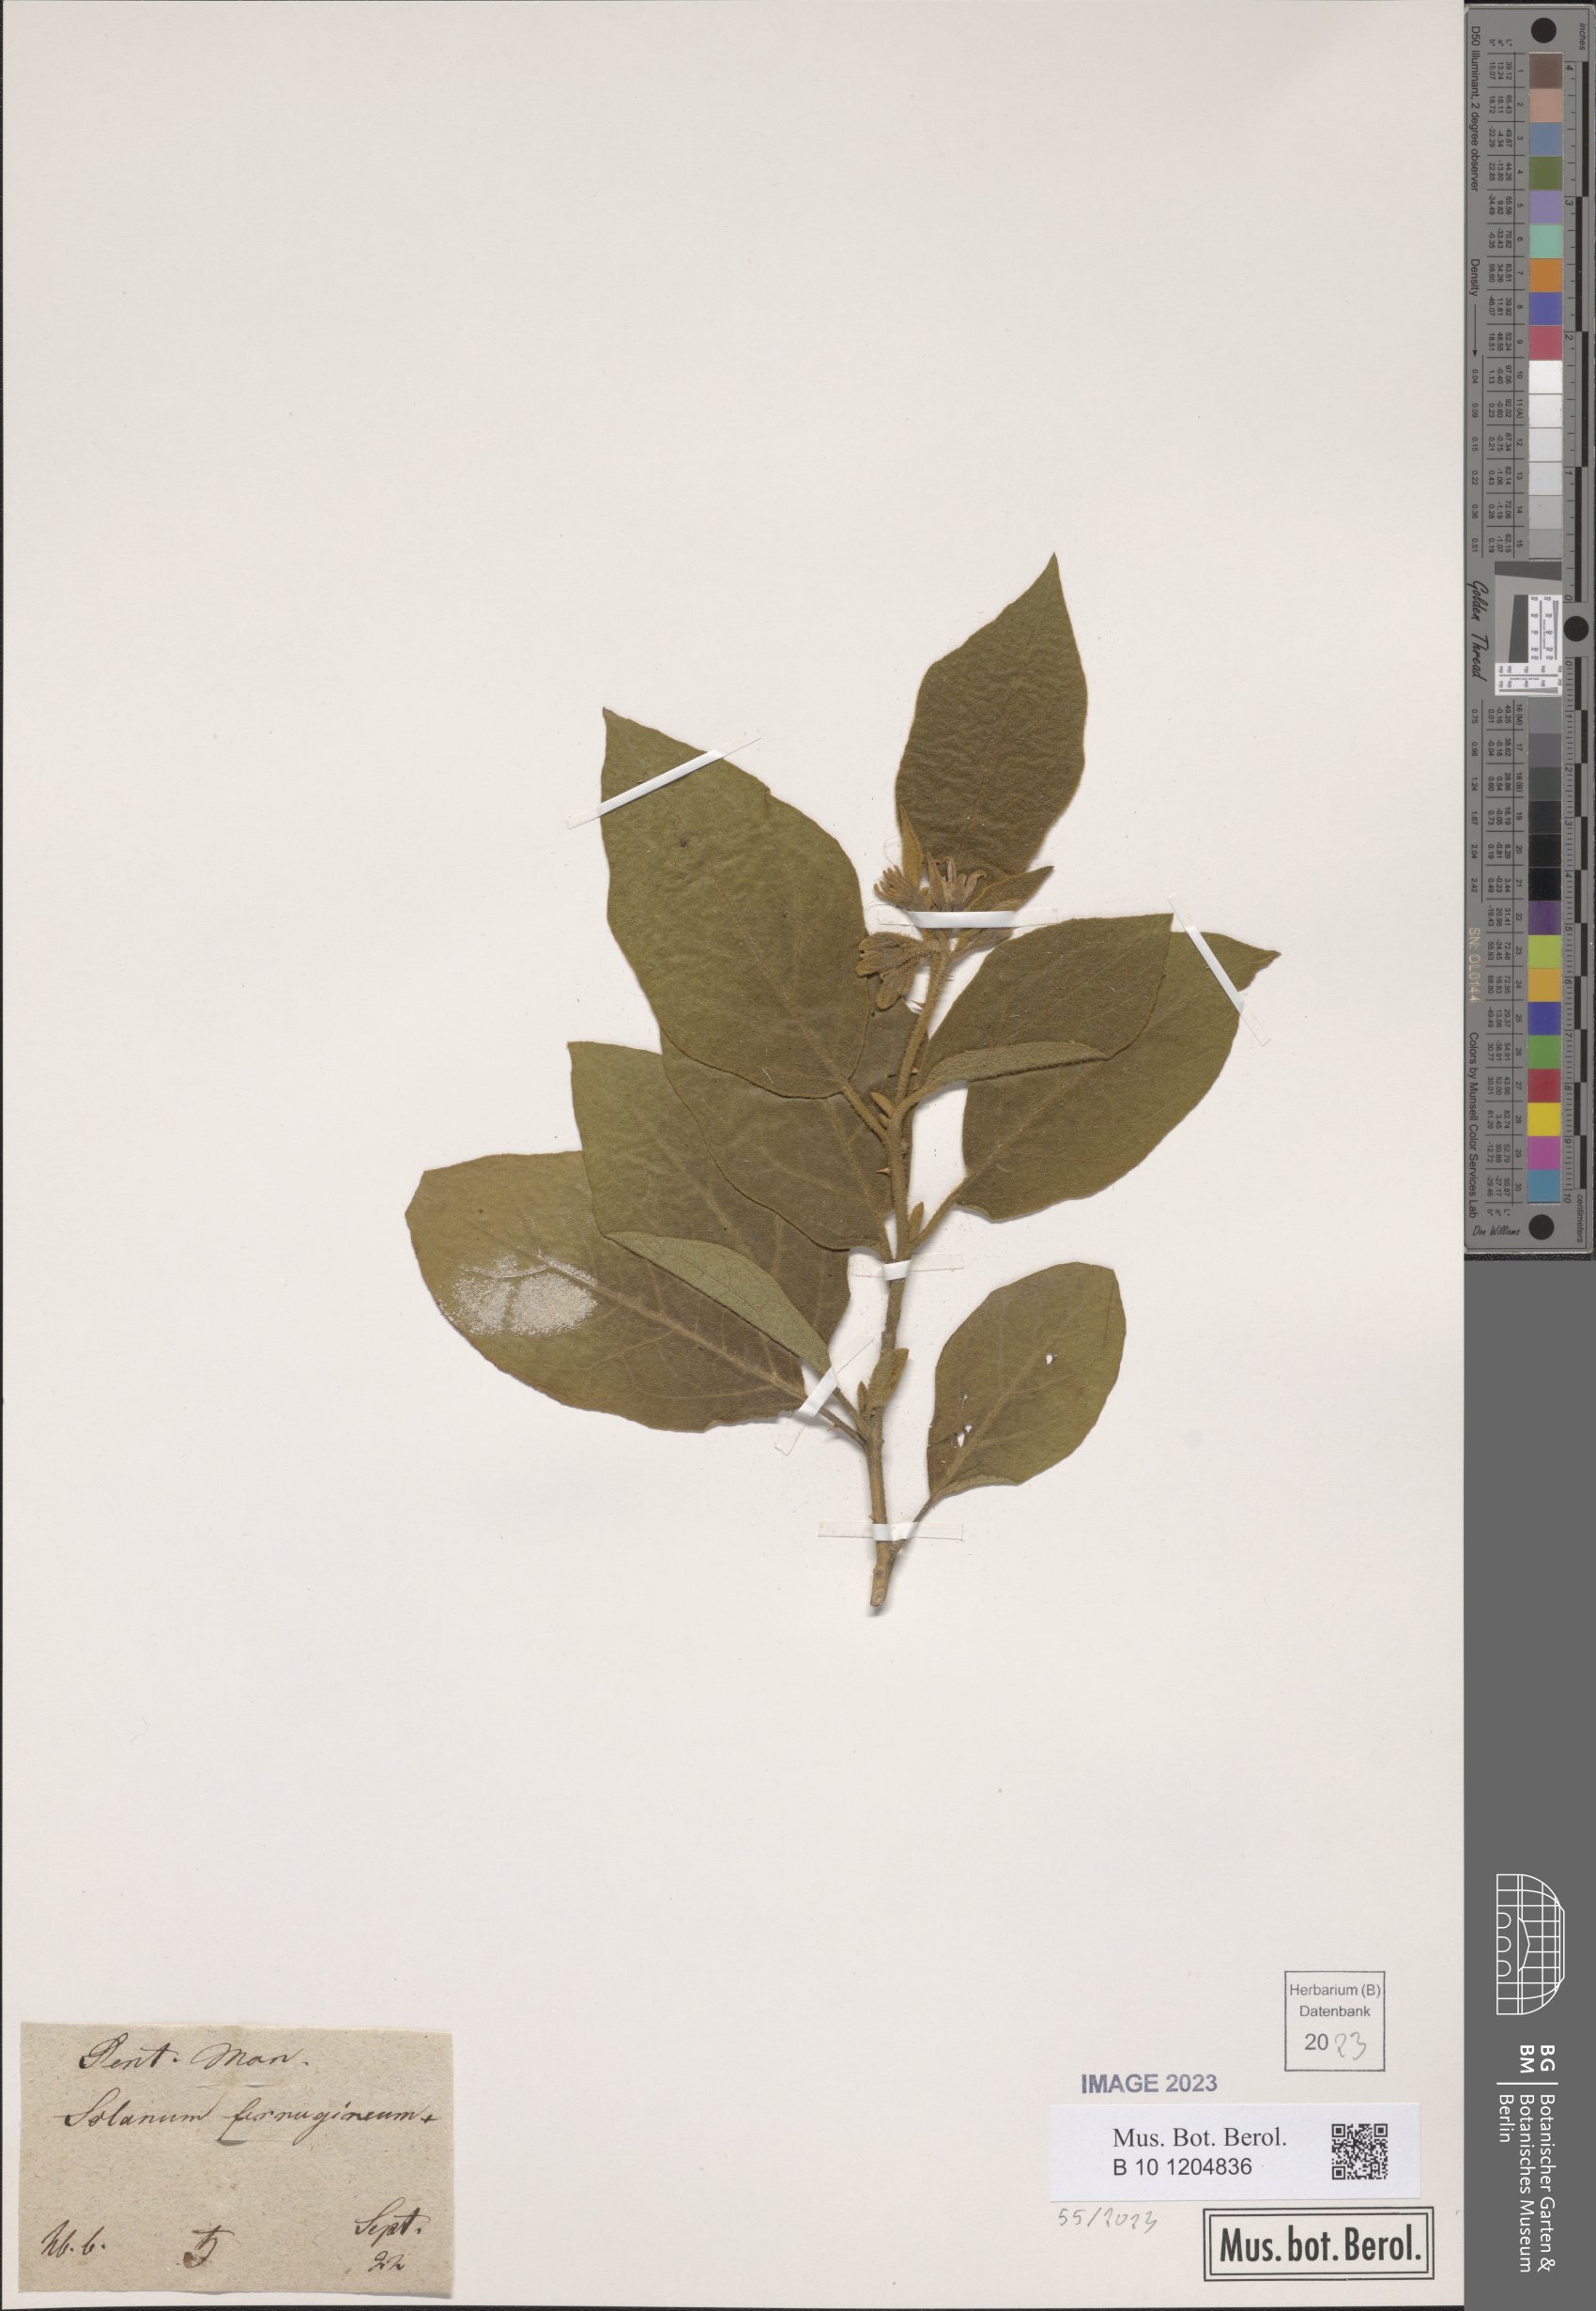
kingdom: Plantae
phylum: Tracheophyta
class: Magnoliopsida
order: Solanales
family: Solanaceae
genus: Solanum
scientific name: Solanum ferrugineum
